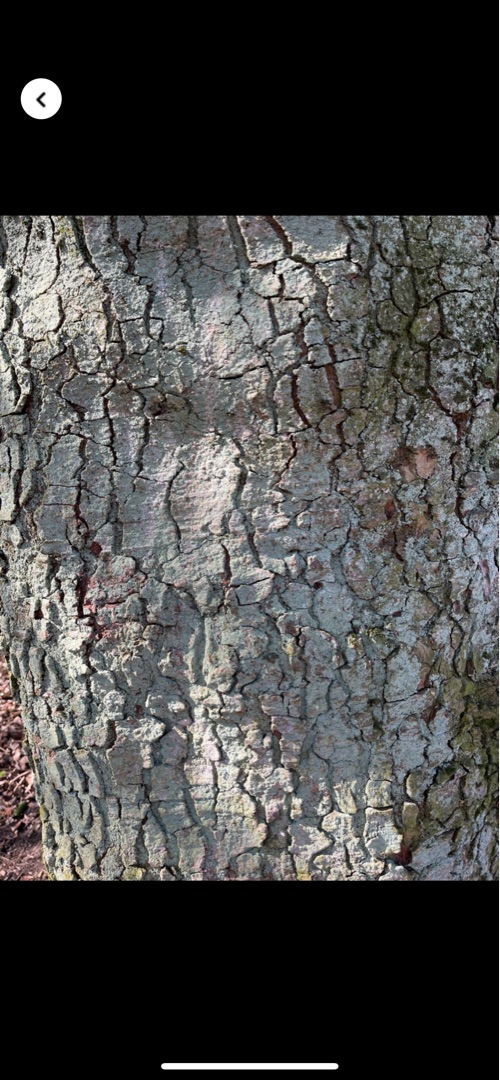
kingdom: Fungi
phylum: Ascomycota
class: Lecanoromycetes
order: Lecanorales
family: Stereocaulaceae
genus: Lepraria
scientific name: Lepraria
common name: Støvlav
